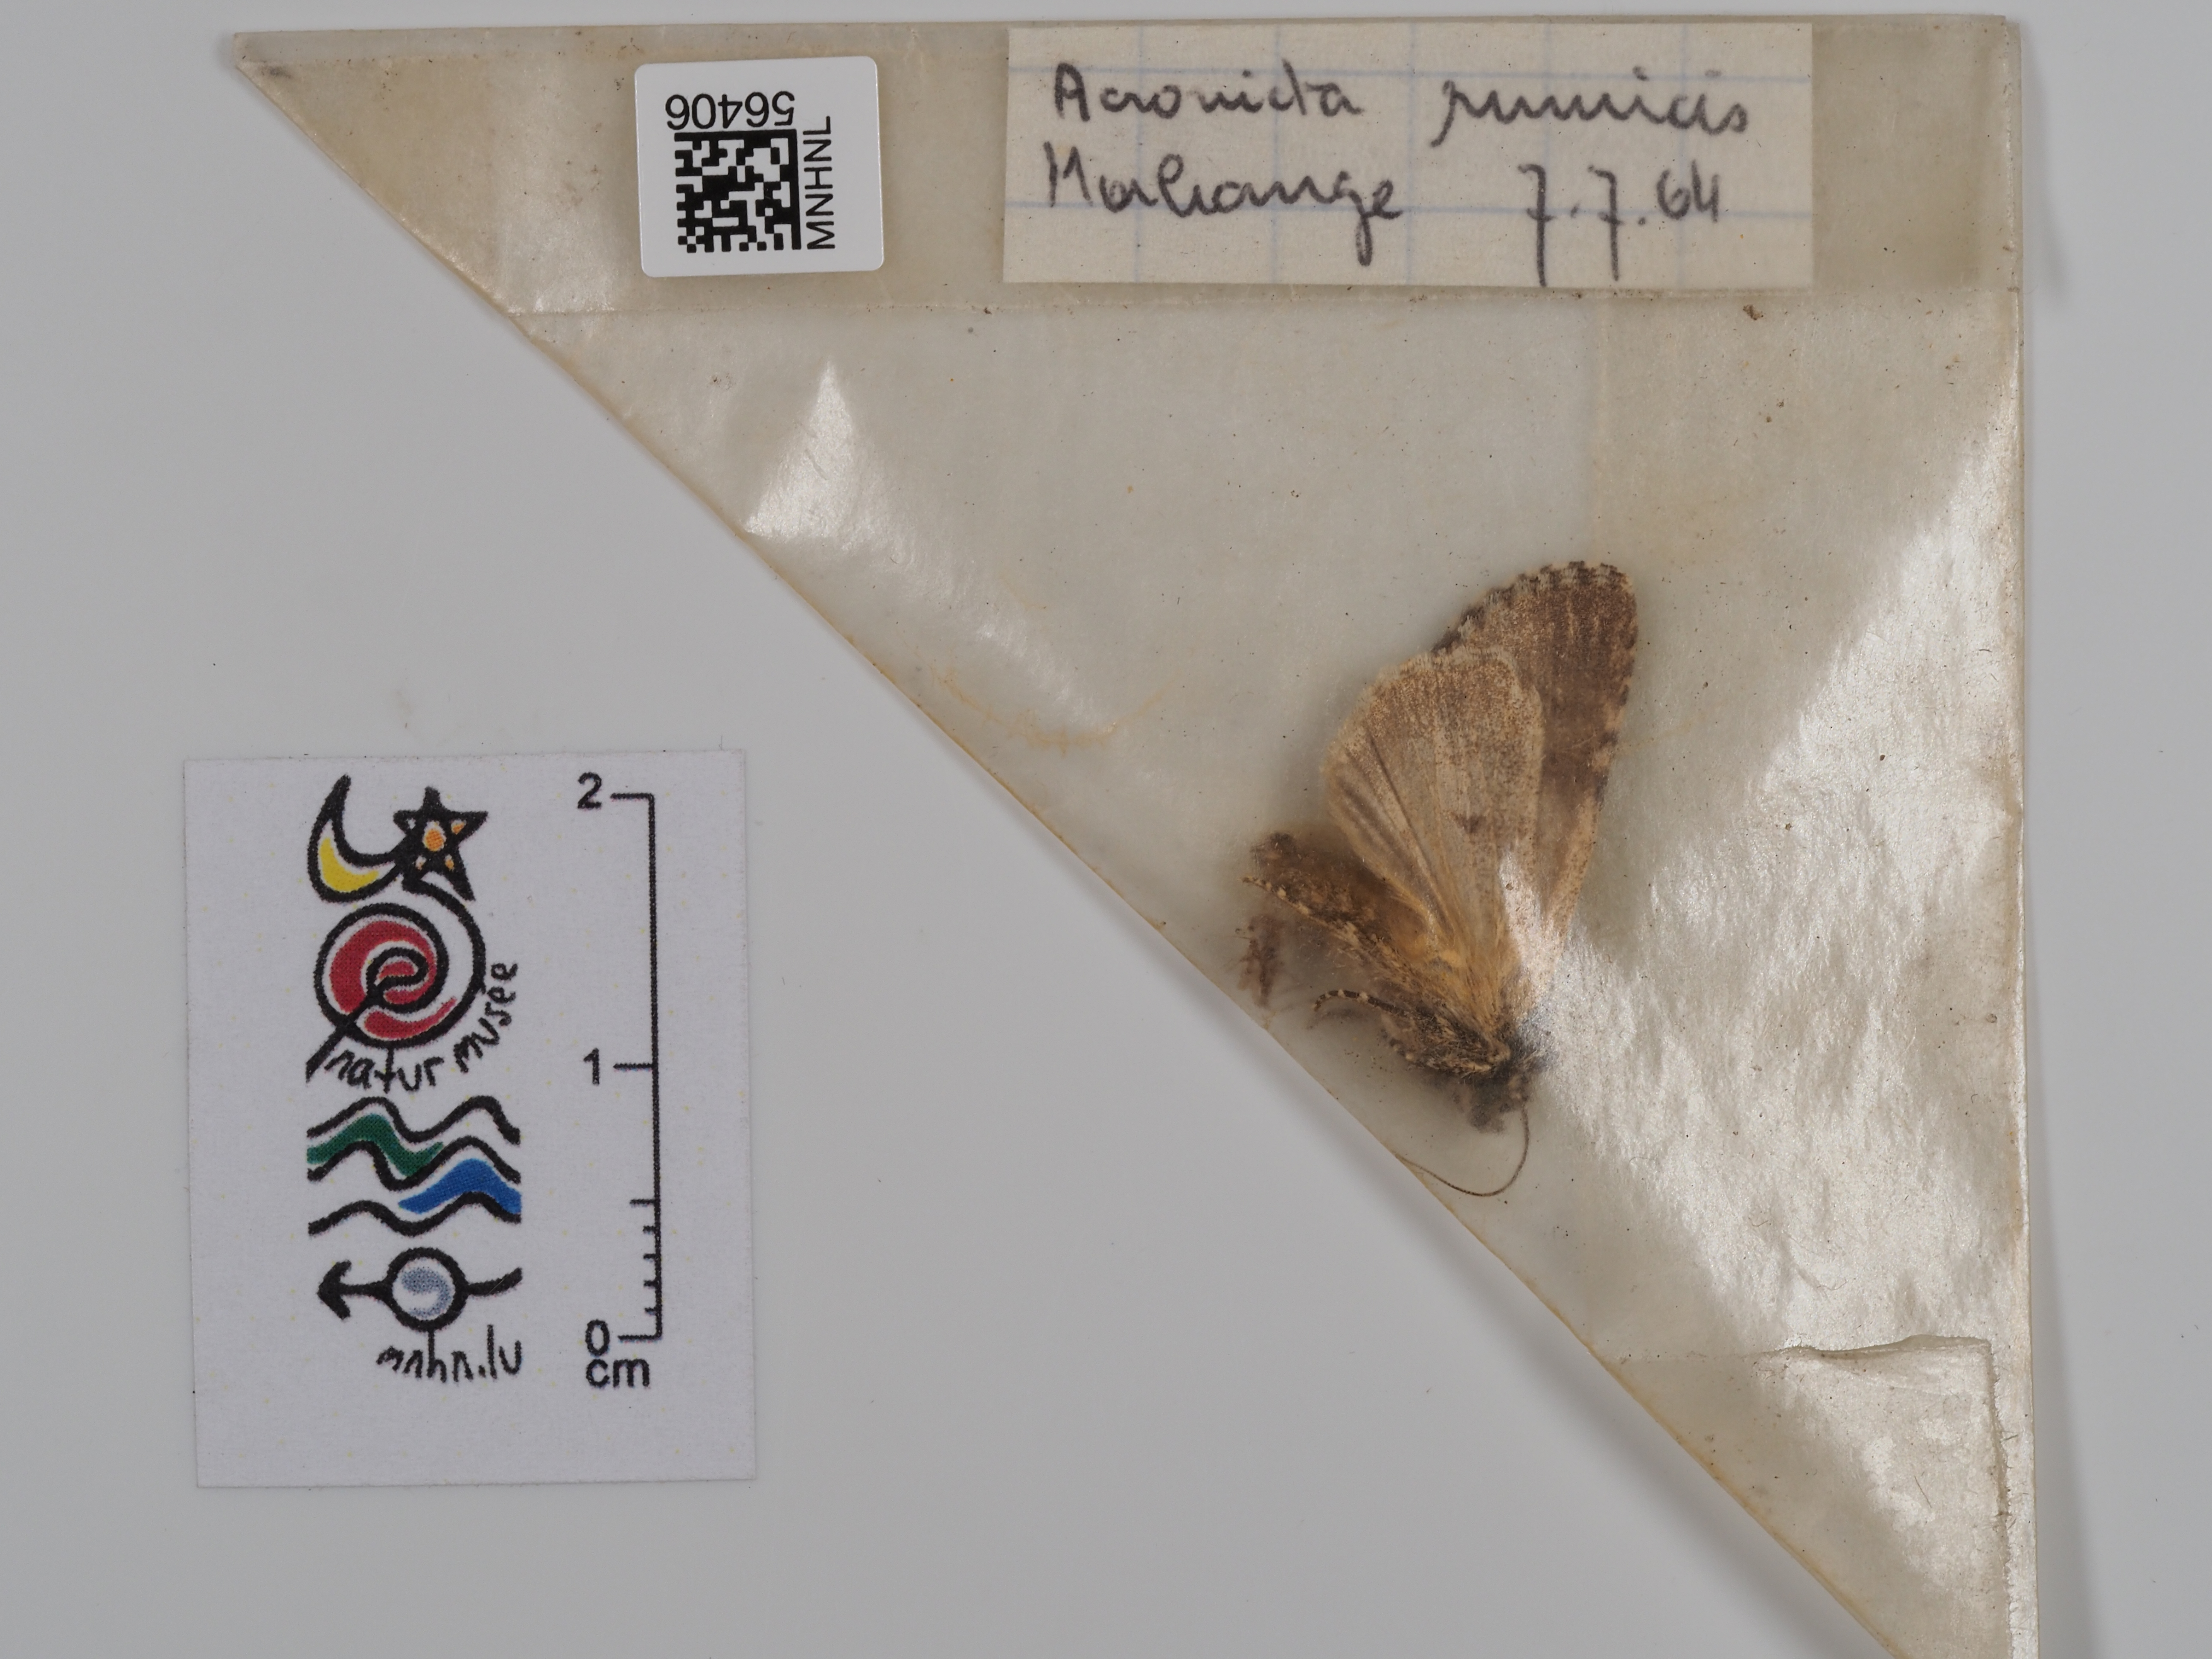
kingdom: Animalia
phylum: Arthropoda
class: Insecta
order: Lepidoptera
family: Noctuidae
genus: Acronicta
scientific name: Acronicta rumicis
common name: Knot grass
